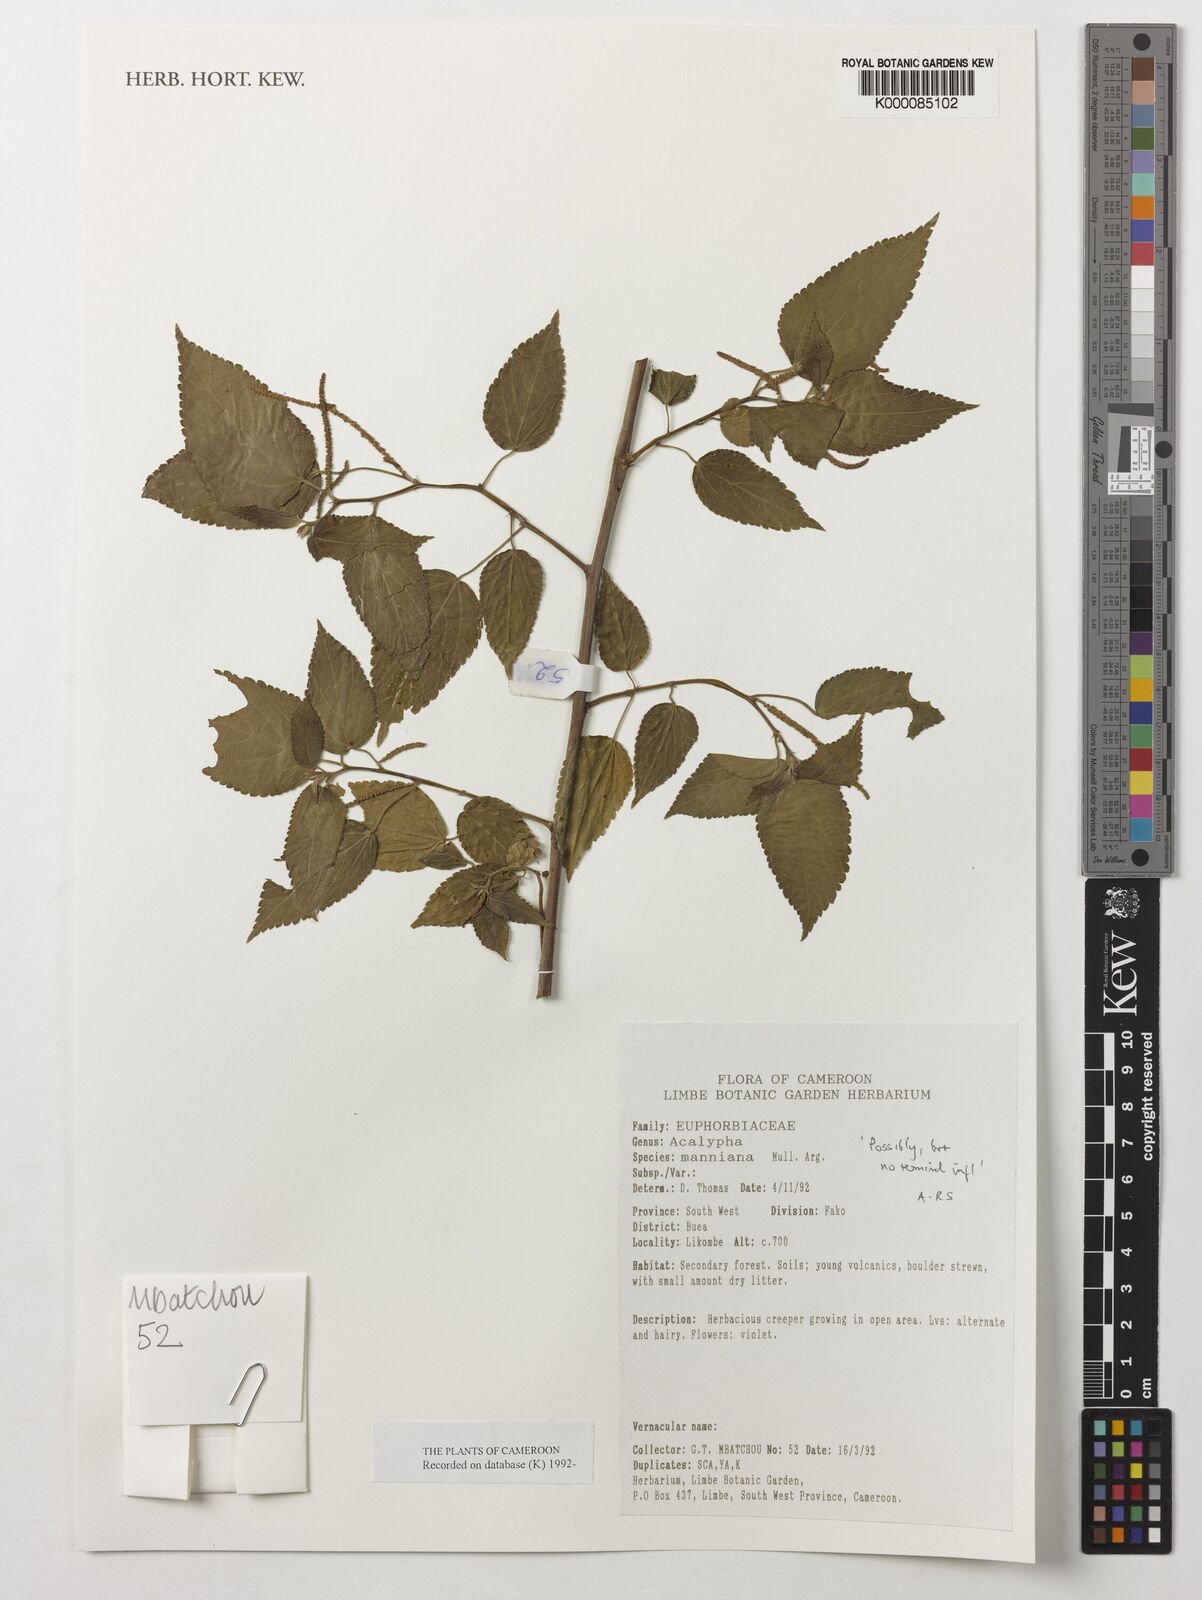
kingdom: Plantae
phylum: Tracheophyta
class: Magnoliopsida
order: Malpighiales
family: Euphorbiaceae
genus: Acalypha
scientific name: Acalypha
